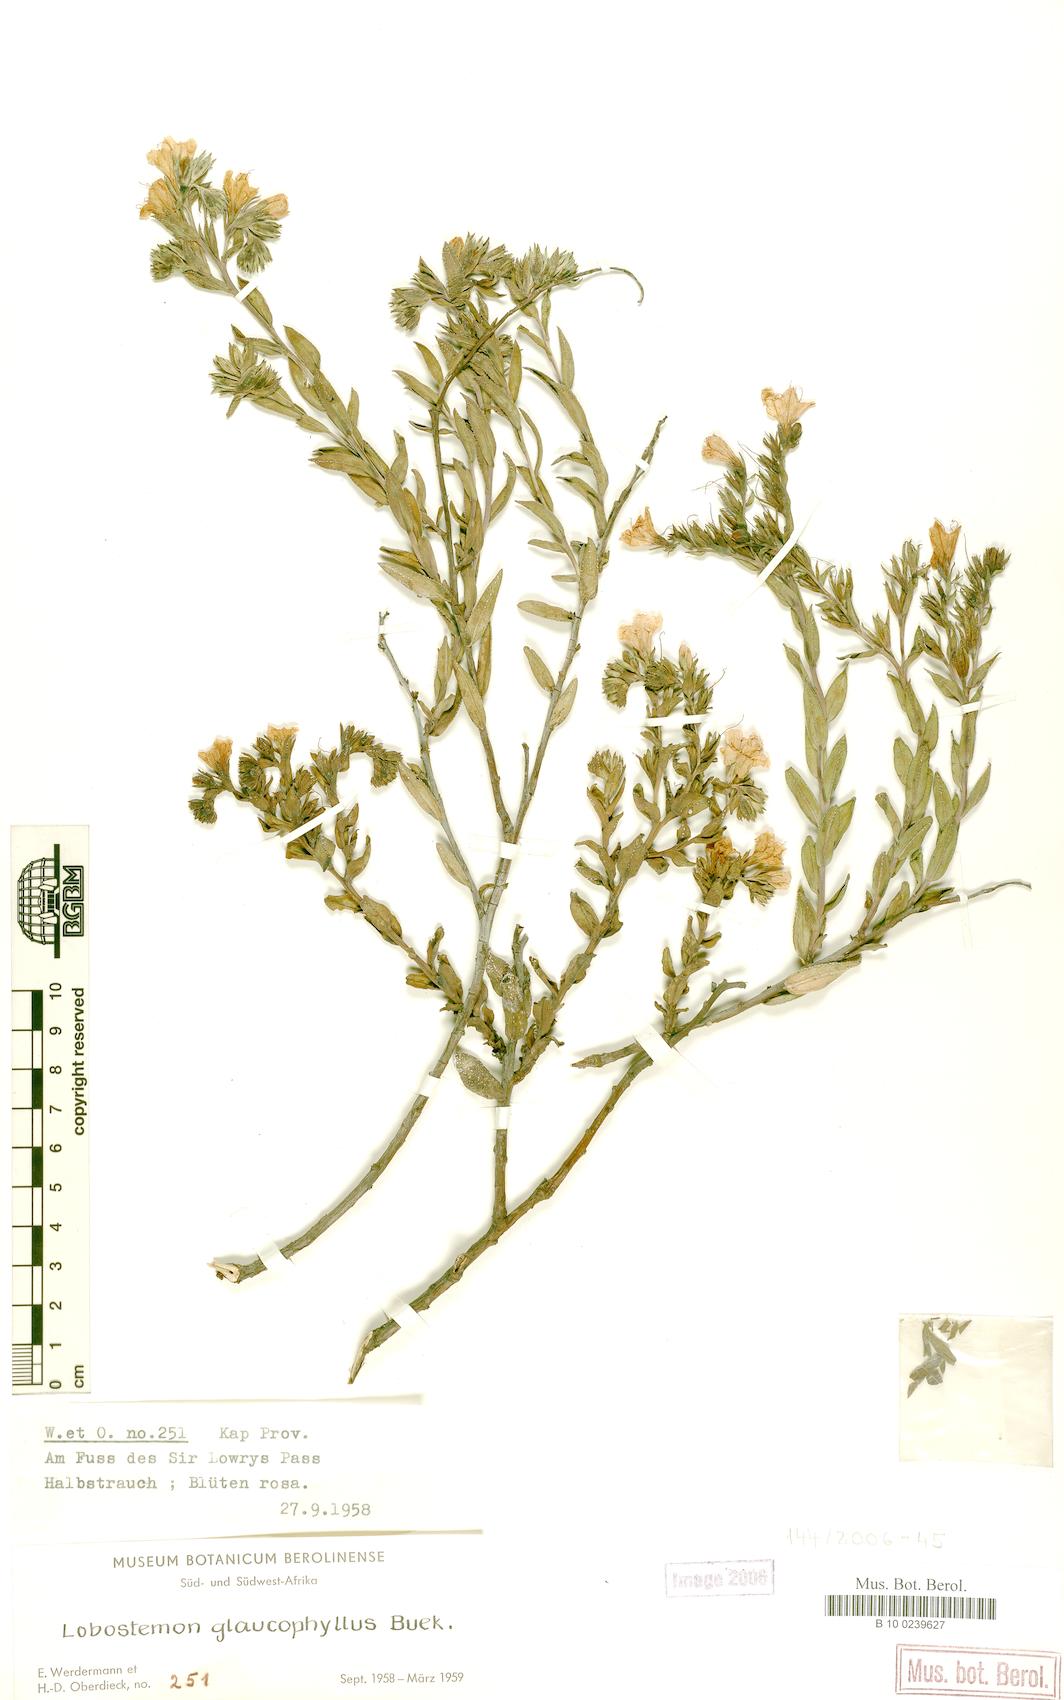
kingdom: Plantae
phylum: Tracheophyta
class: Magnoliopsida
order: Boraginales
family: Boraginaceae
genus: Lobostemon
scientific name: Lobostemon glaucophyllus
